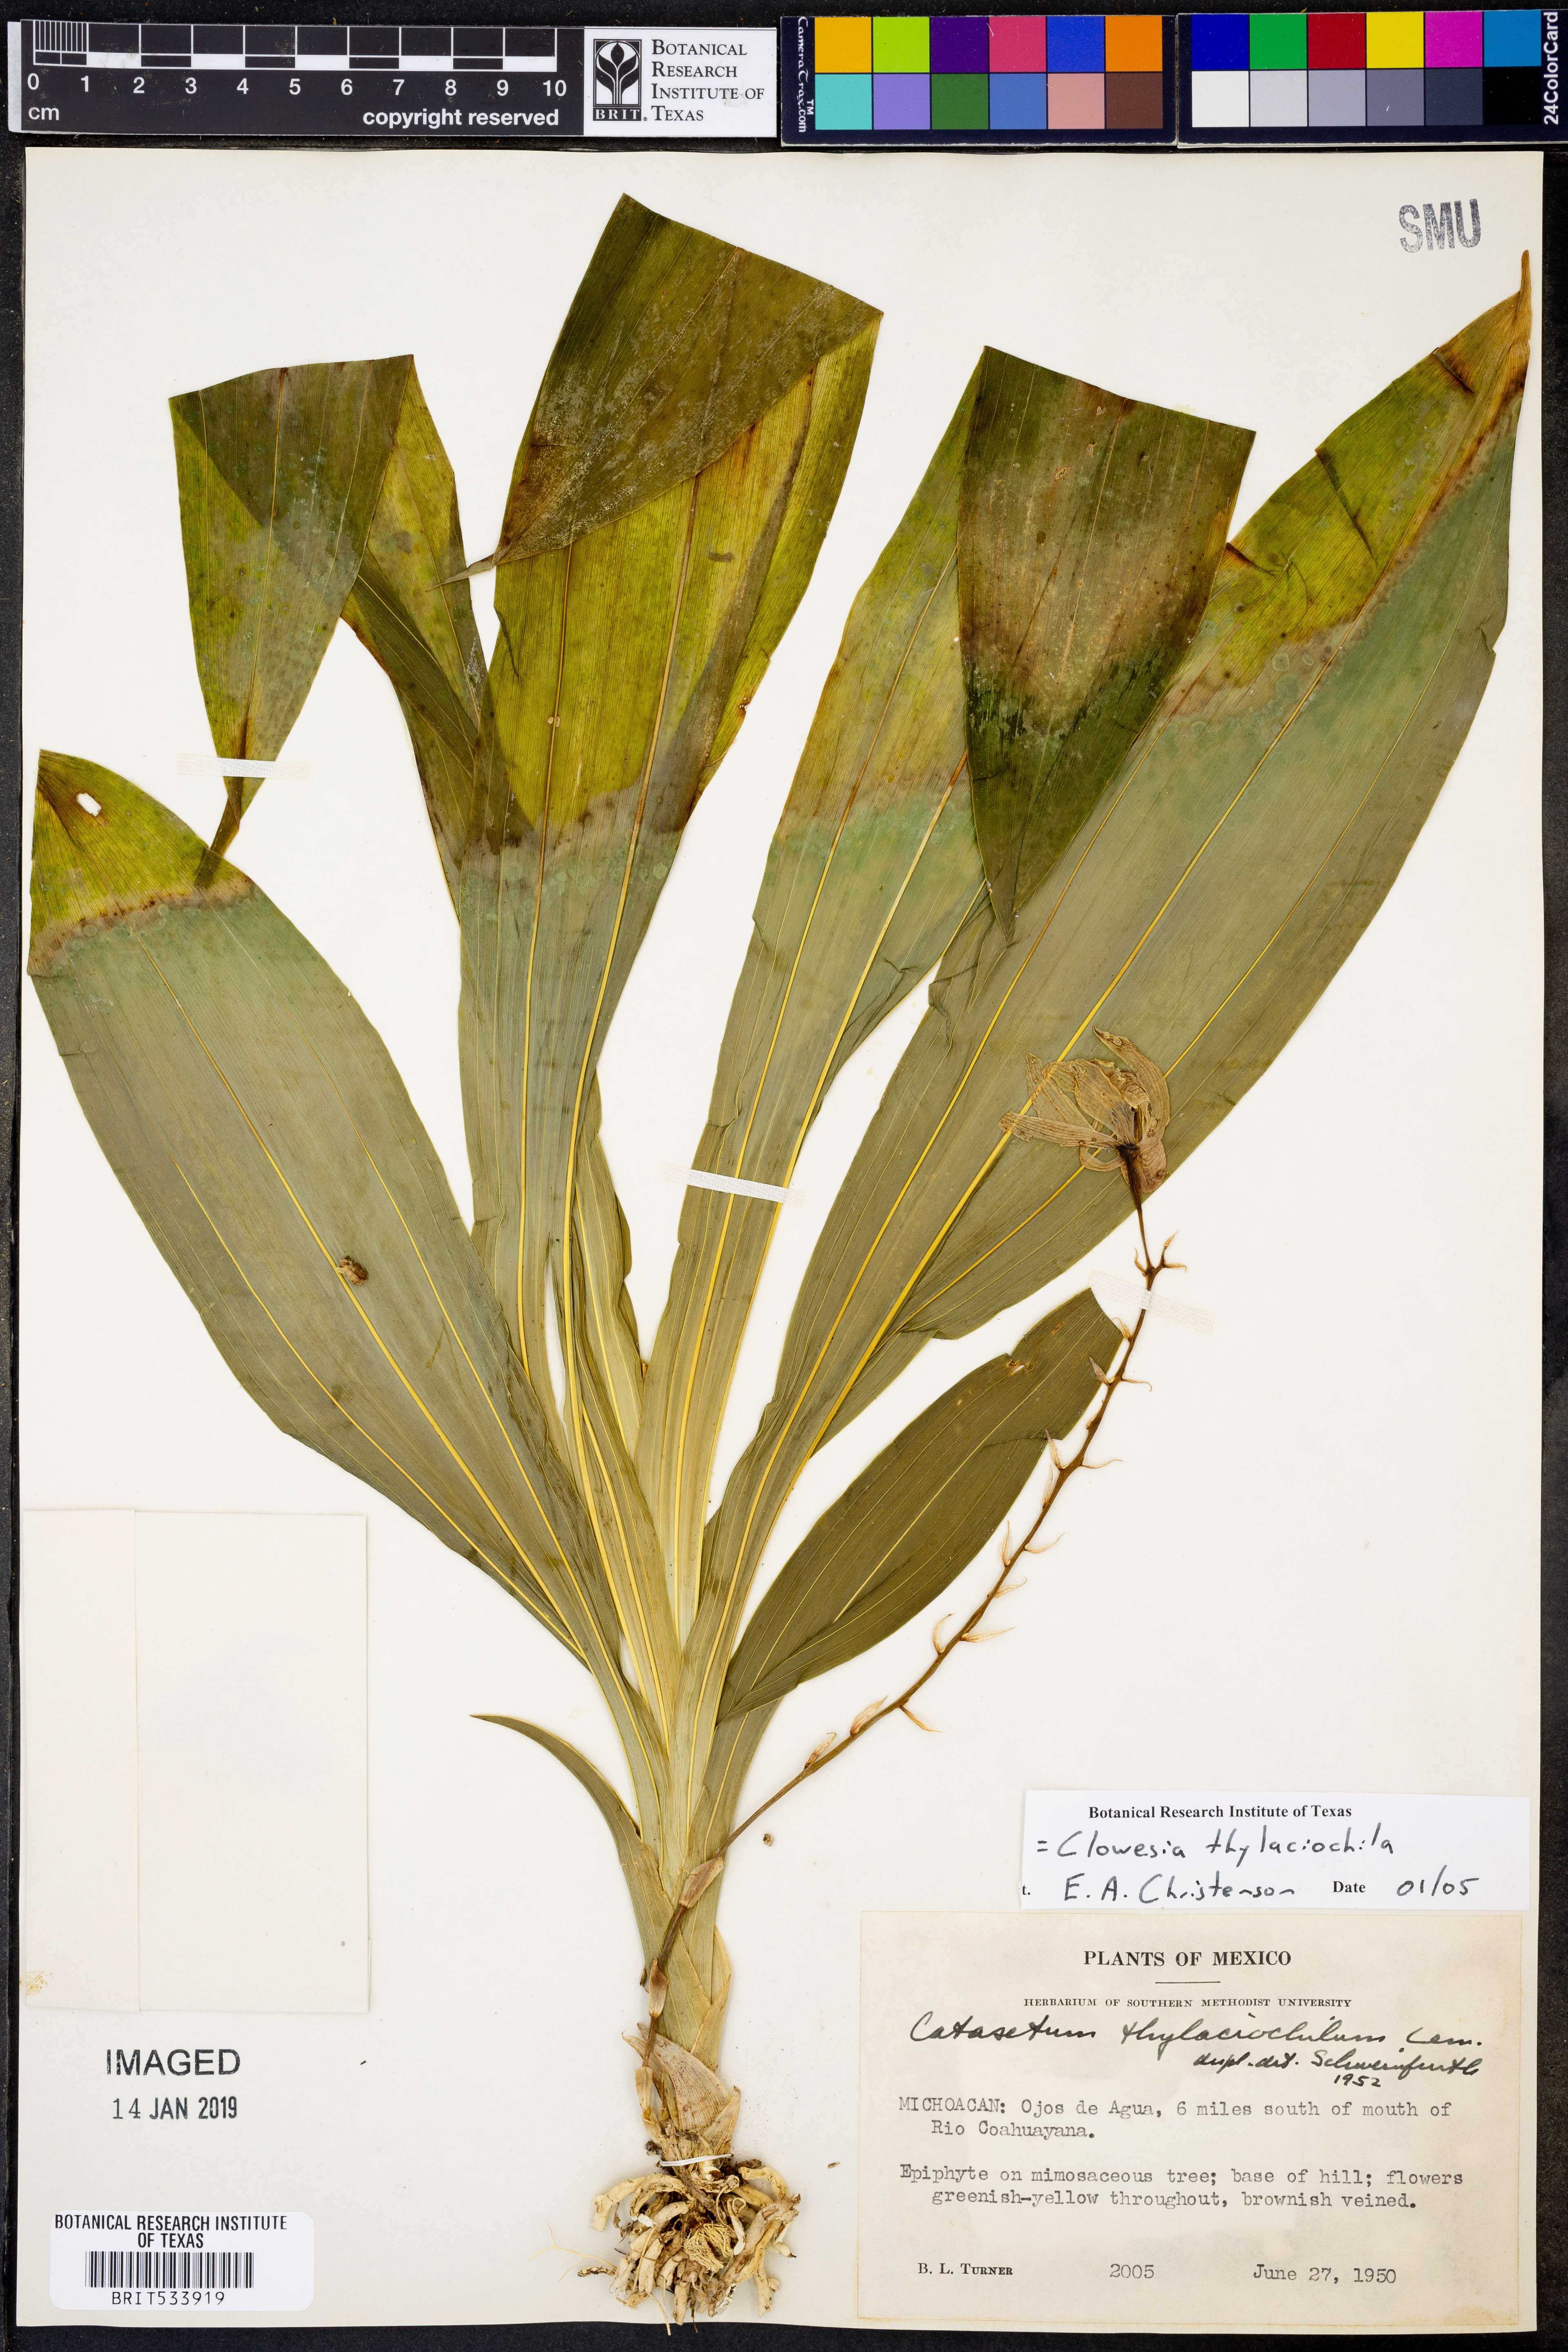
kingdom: Plantae
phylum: Tracheophyta
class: Liliopsida
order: Asparagales
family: Orchidaceae
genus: Clowesia
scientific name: Clowesia thylaciochila
